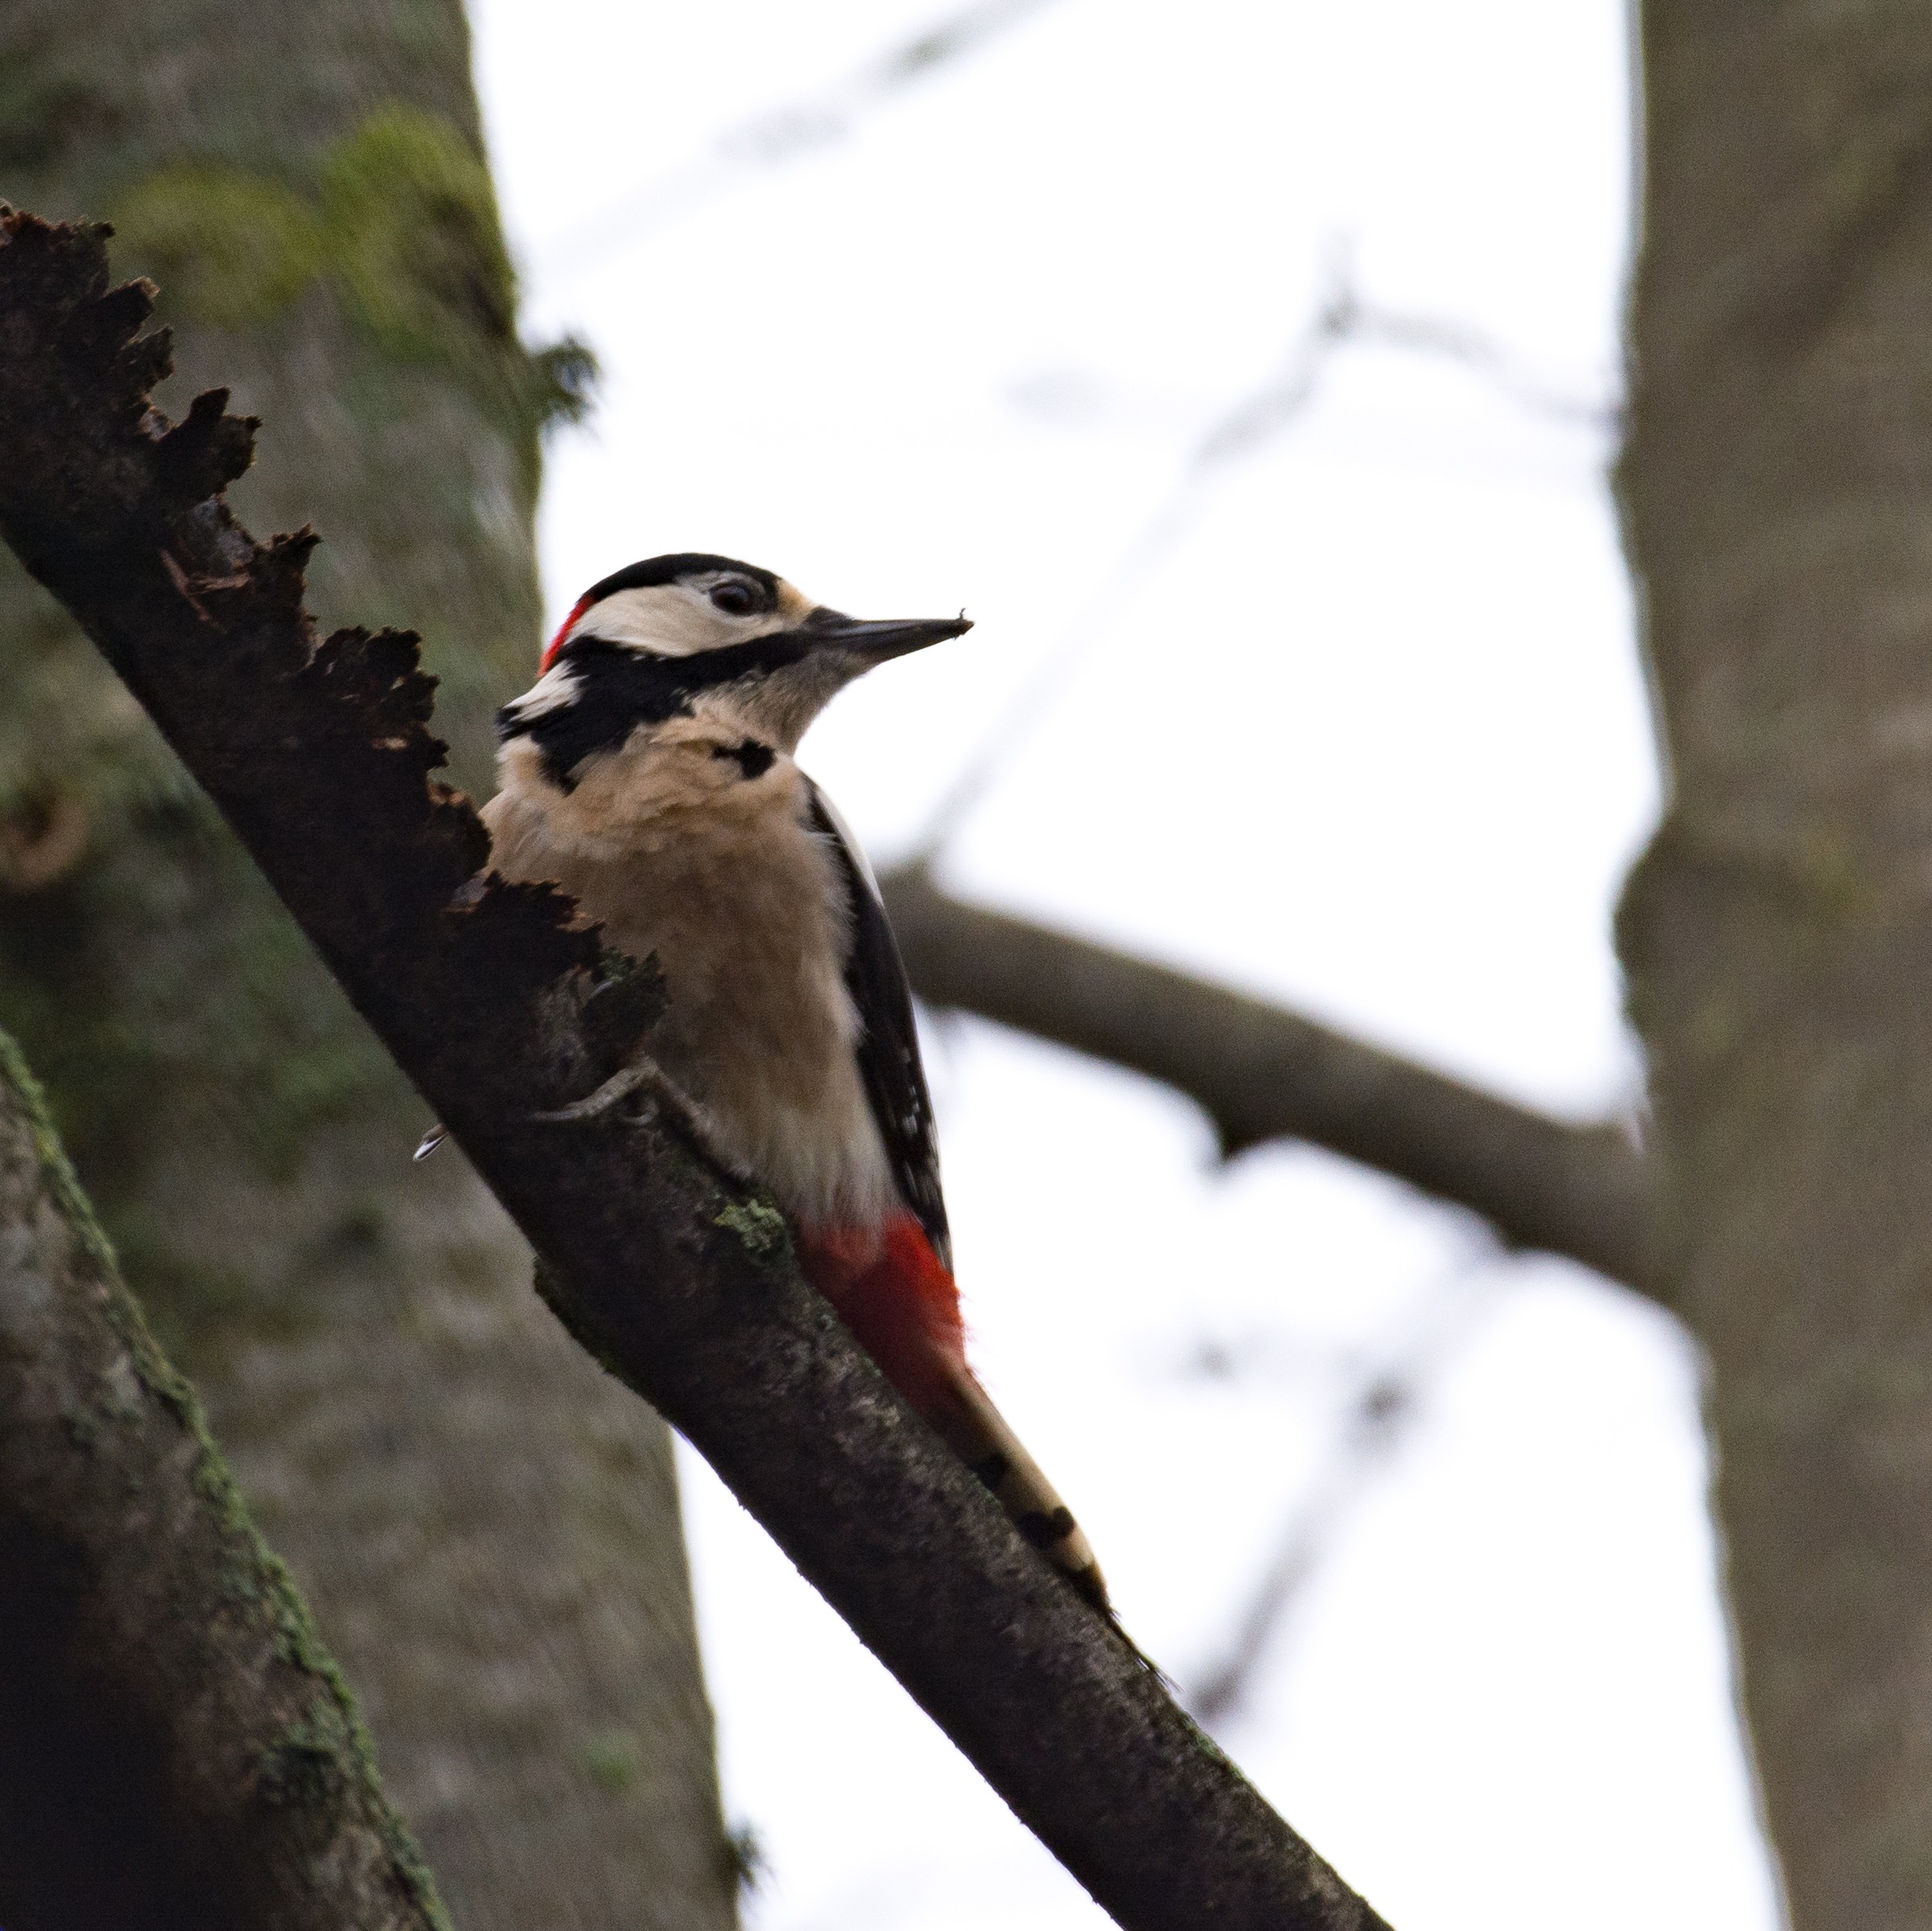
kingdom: Animalia
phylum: Chordata
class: Aves
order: Piciformes
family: Picidae
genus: Dendrocopos
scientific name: Dendrocopos major
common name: Stor flagspætte
